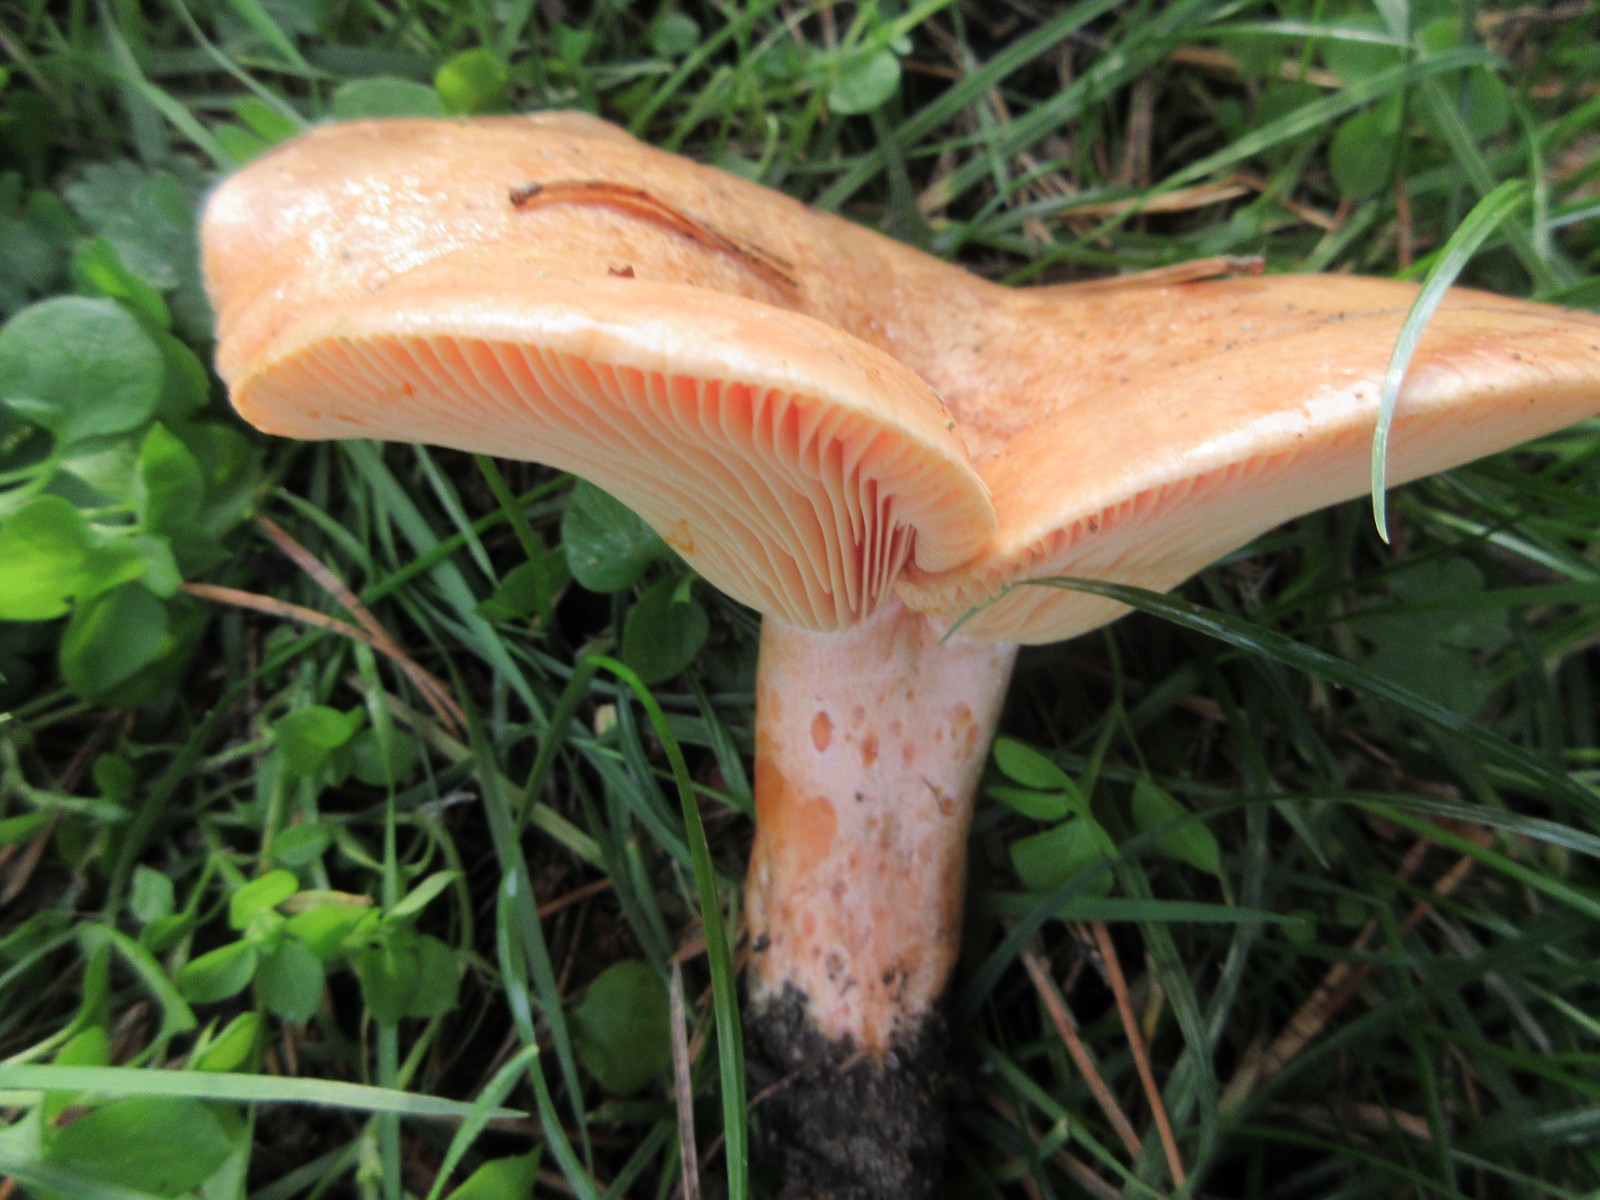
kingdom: Fungi
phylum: Basidiomycota
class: Agaricomycetes
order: Russulales
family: Russulaceae
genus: Lactarius
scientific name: Lactarius deliciosus
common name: velsmagende mælkehat
